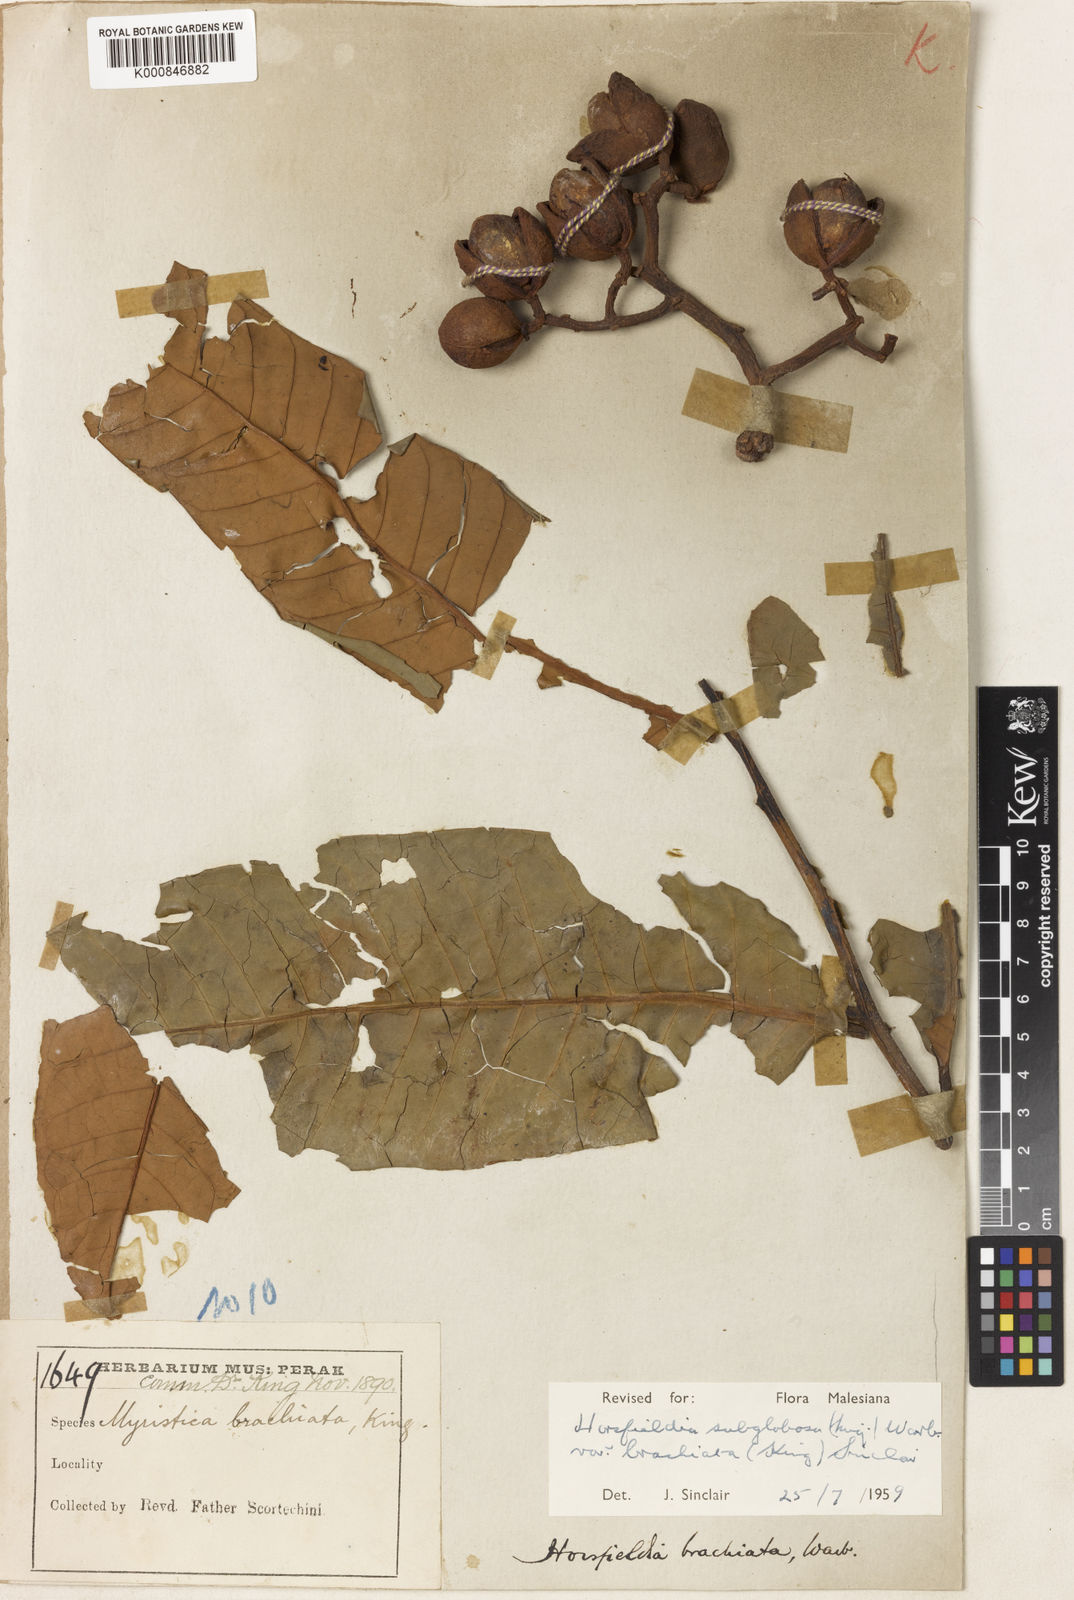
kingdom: Plantae
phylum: Tracheophyta
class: Magnoliopsida
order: Magnoliales
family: Myristicaceae
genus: Horsfieldia
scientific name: Horsfieldia irya
